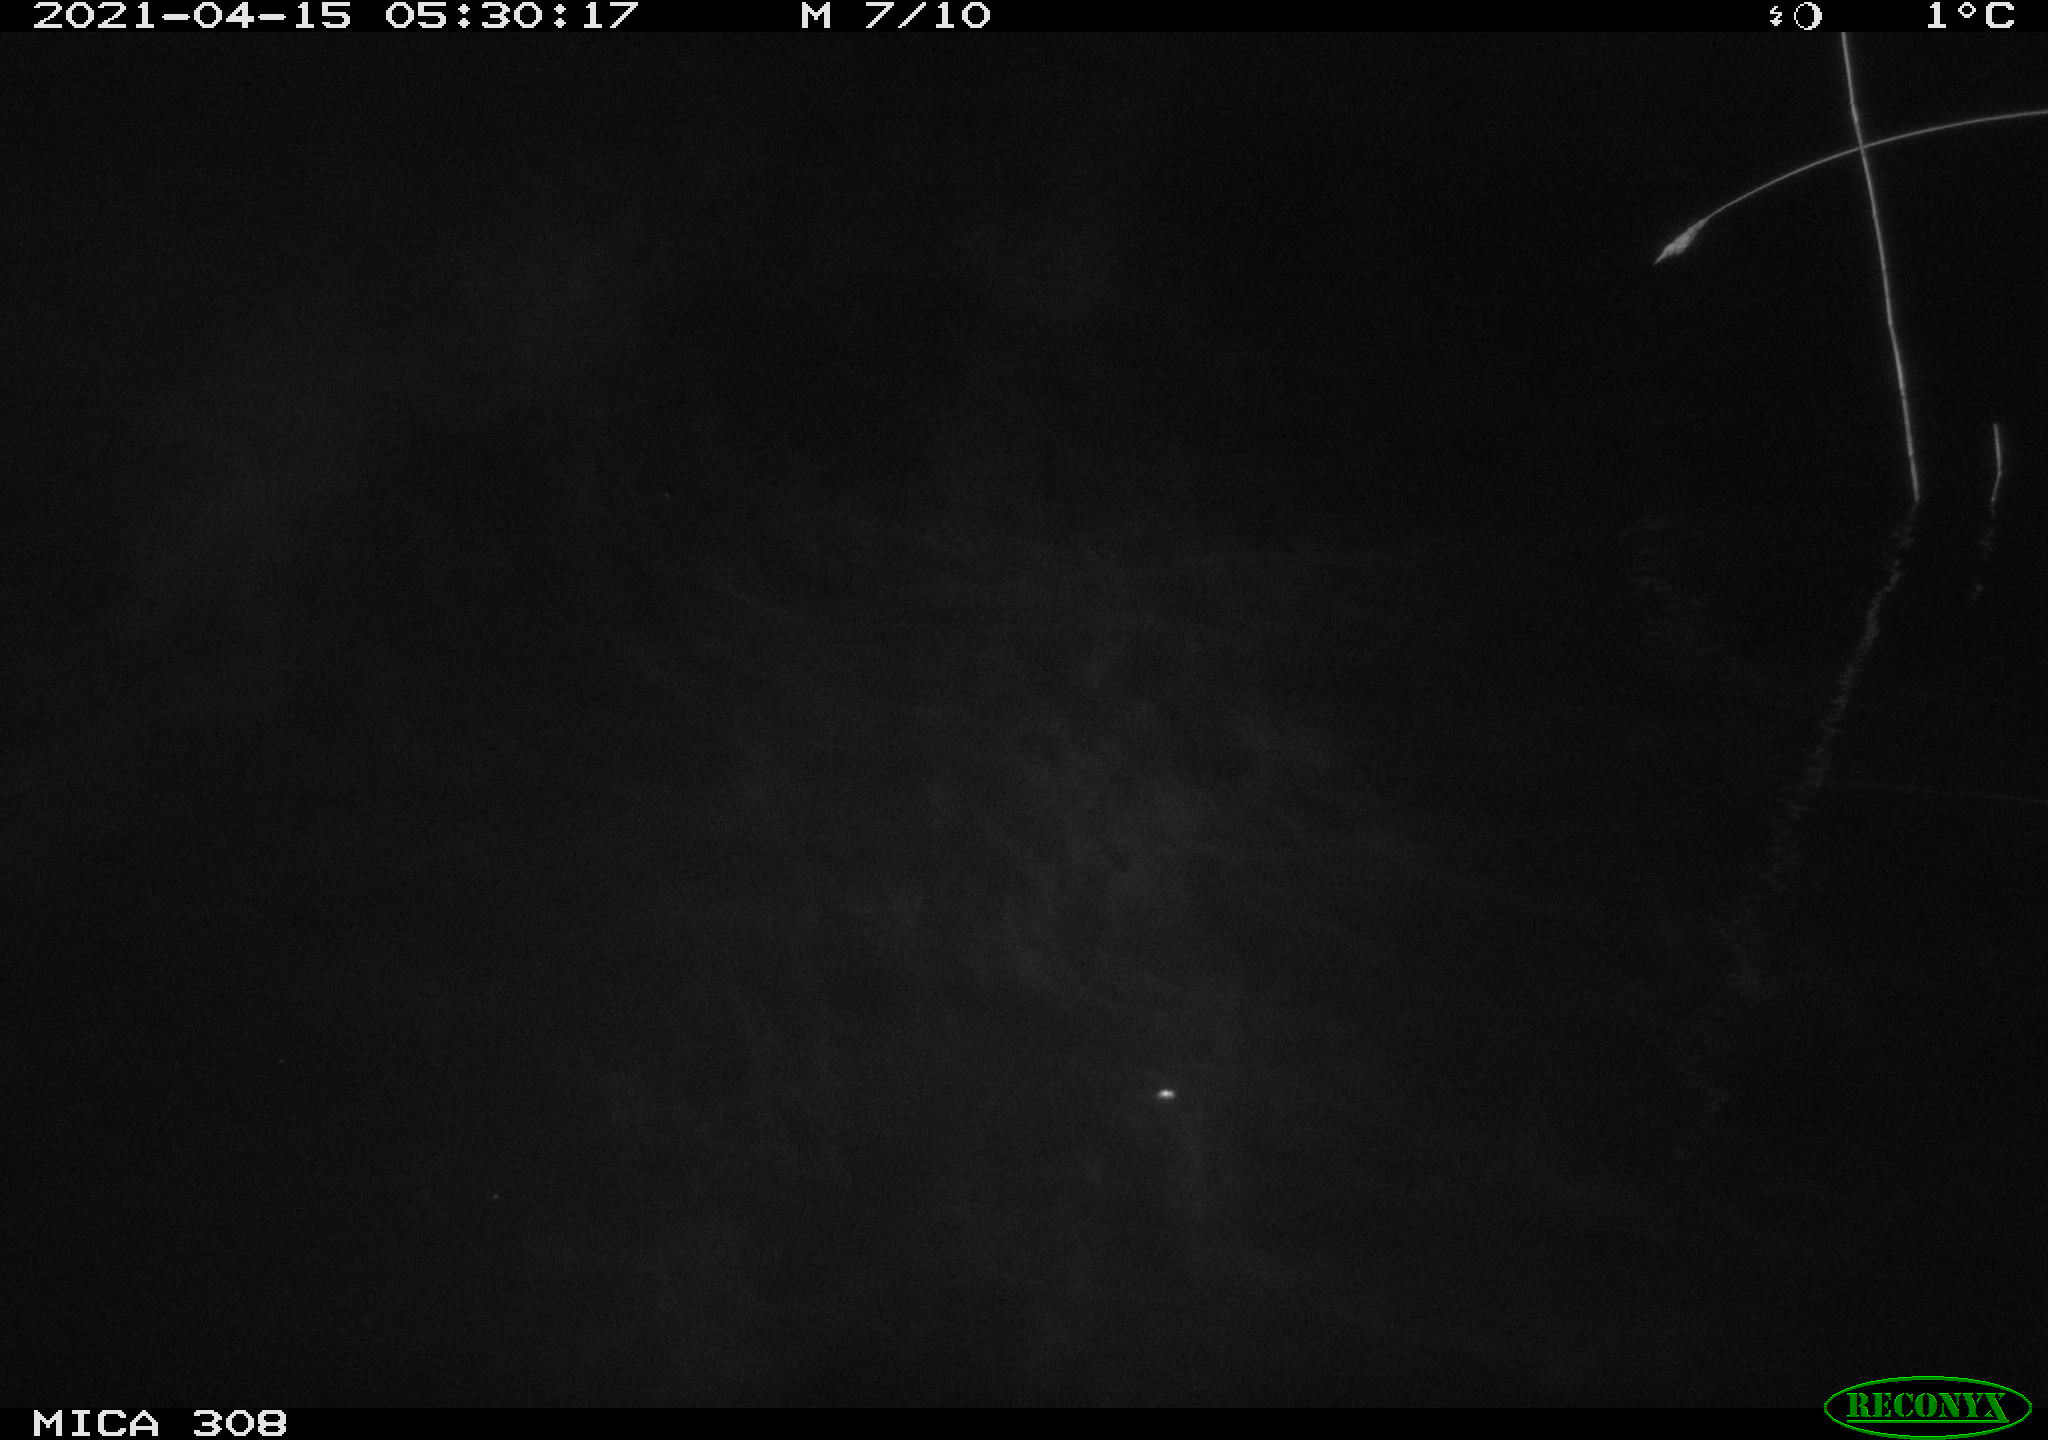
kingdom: Animalia
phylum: Chordata
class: Aves
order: Anseriformes
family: Anatidae
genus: Anas
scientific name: Anas platyrhynchos
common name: Mallard
